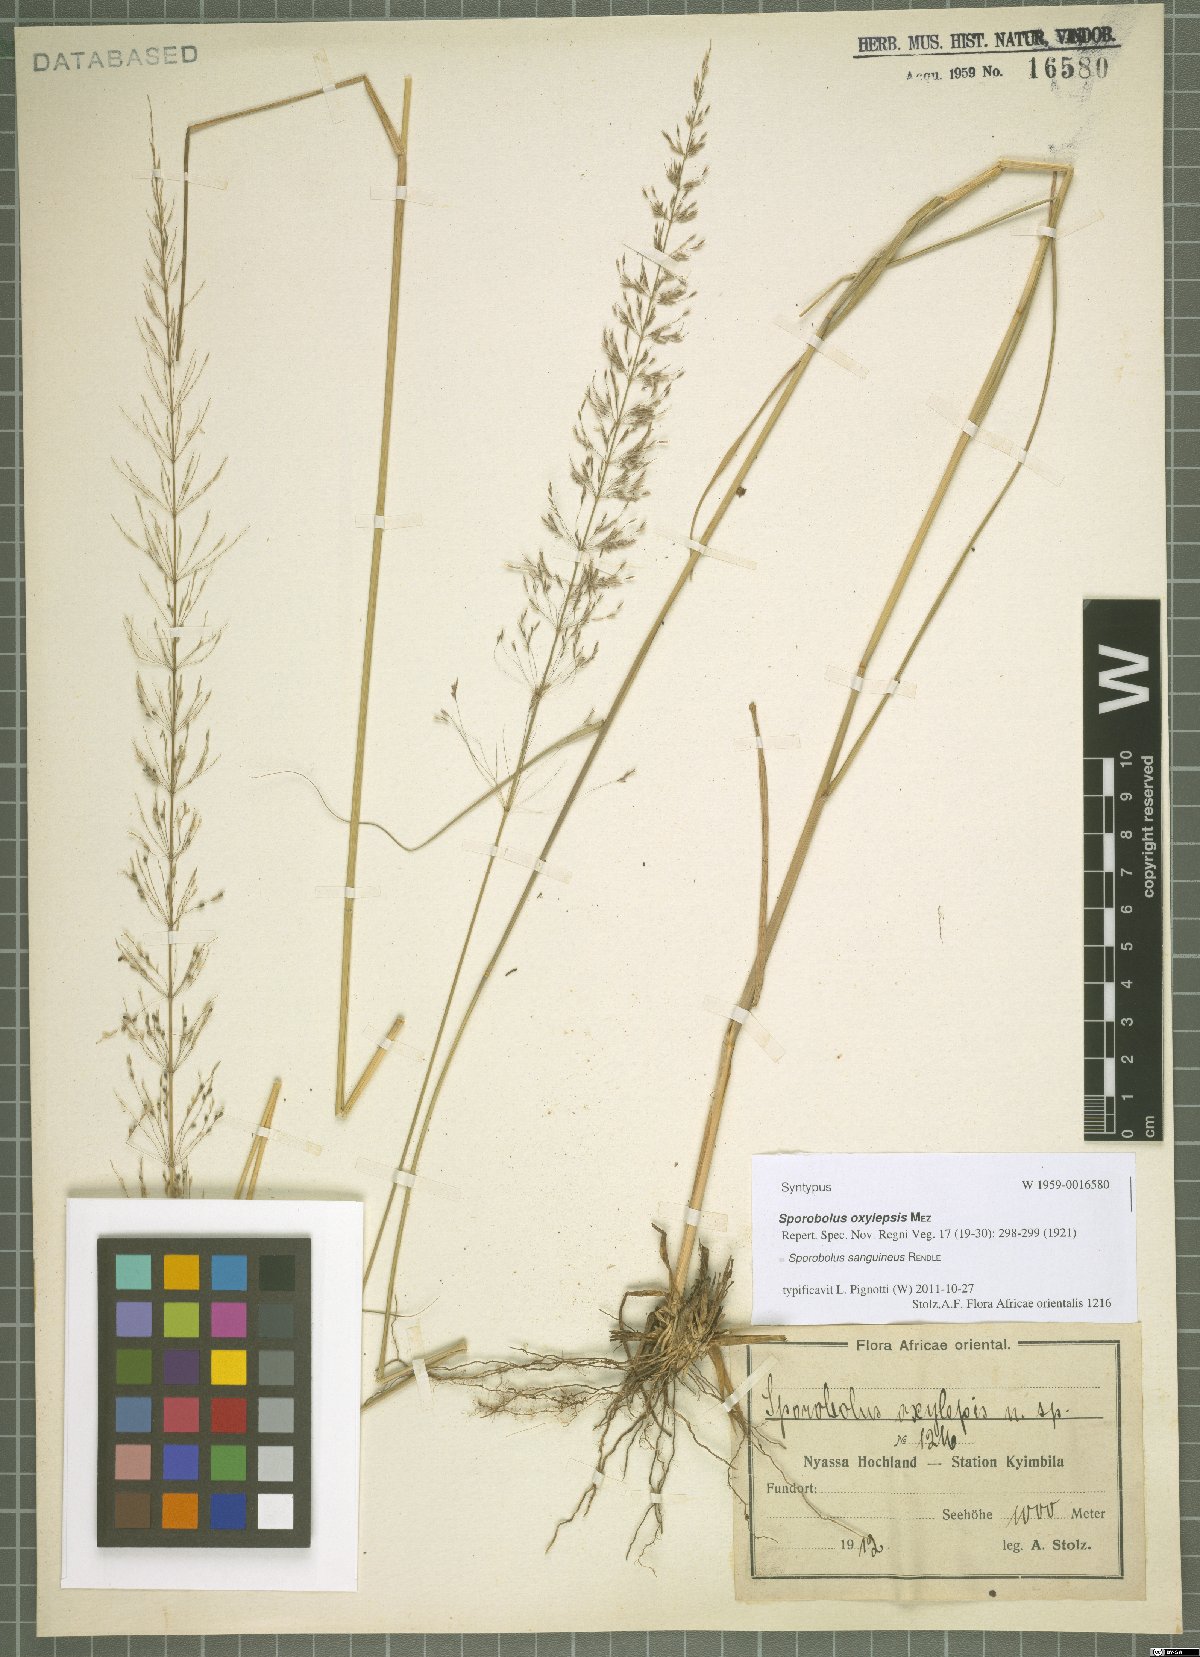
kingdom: Plantae
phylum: Tracheophyta
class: Liliopsida
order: Poales
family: Poaceae
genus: Sporobolus
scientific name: Sporobolus sanguineus
